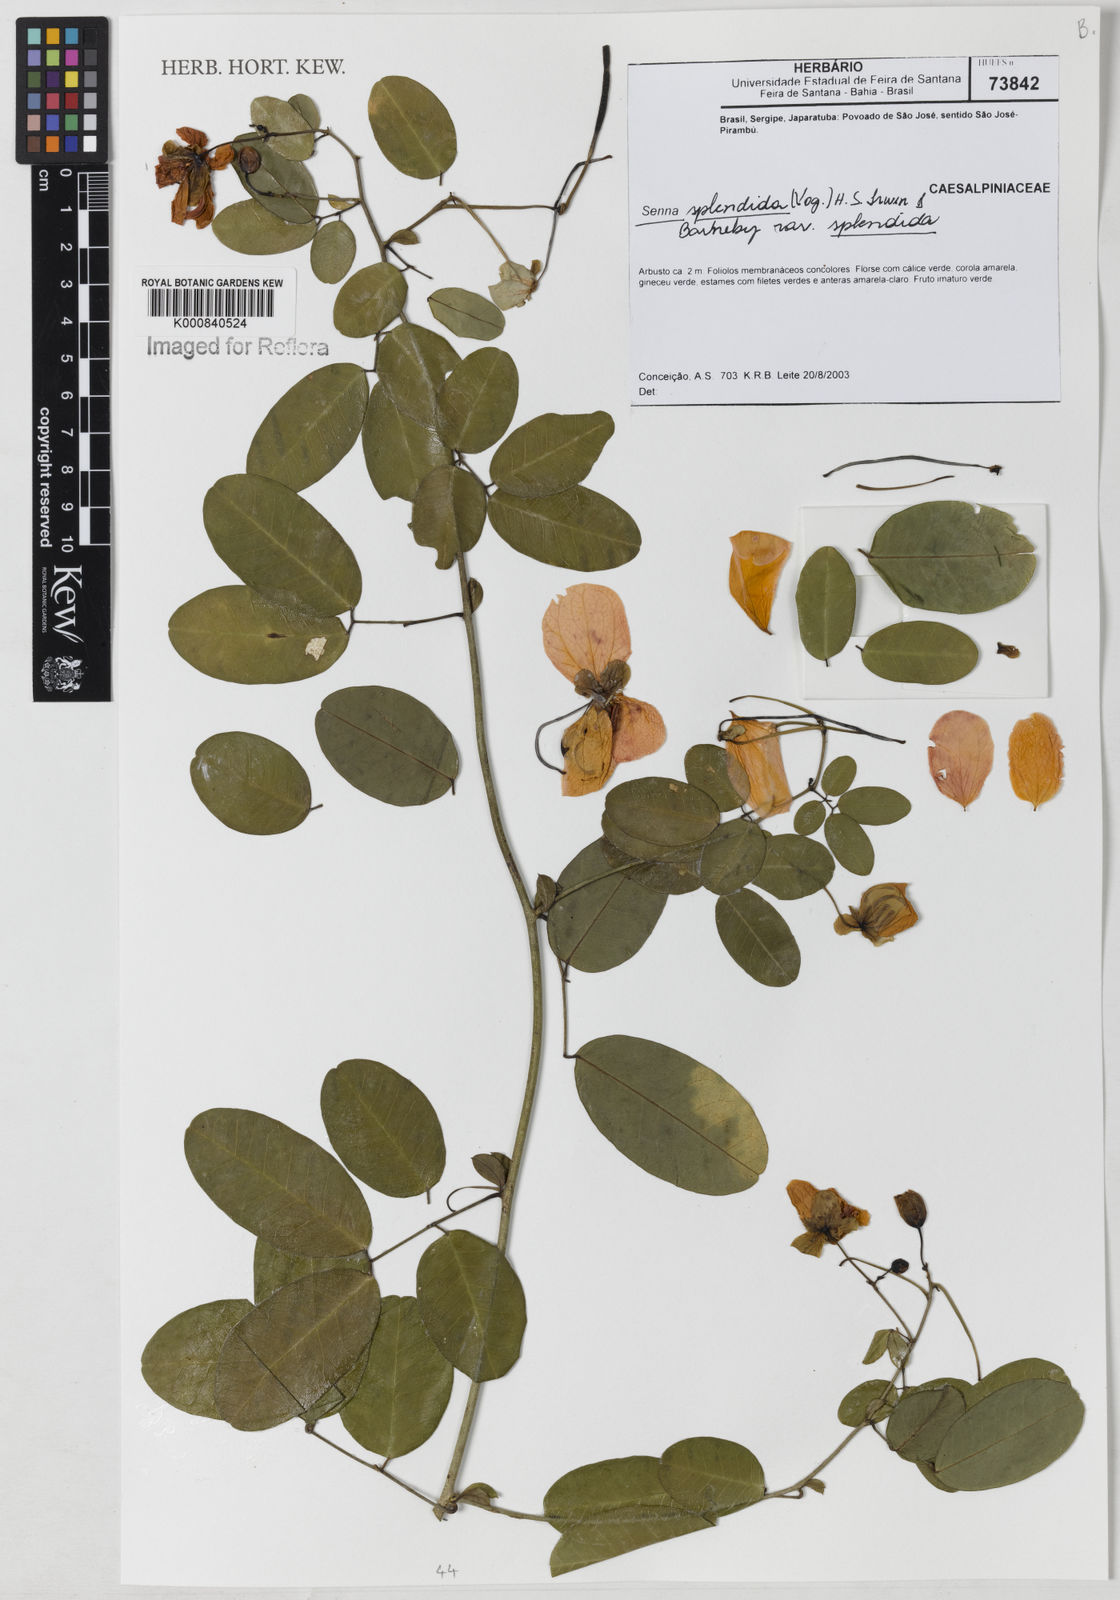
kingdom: Plantae
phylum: Tracheophyta
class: Magnoliopsida
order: Fabales
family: Fabaceae
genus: Senna
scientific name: Senna splendida
